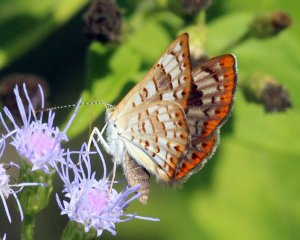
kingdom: Animalia
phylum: Arthropoda
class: Insecta
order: Lepidoptera
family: Riodinidae
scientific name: Riodinidae
